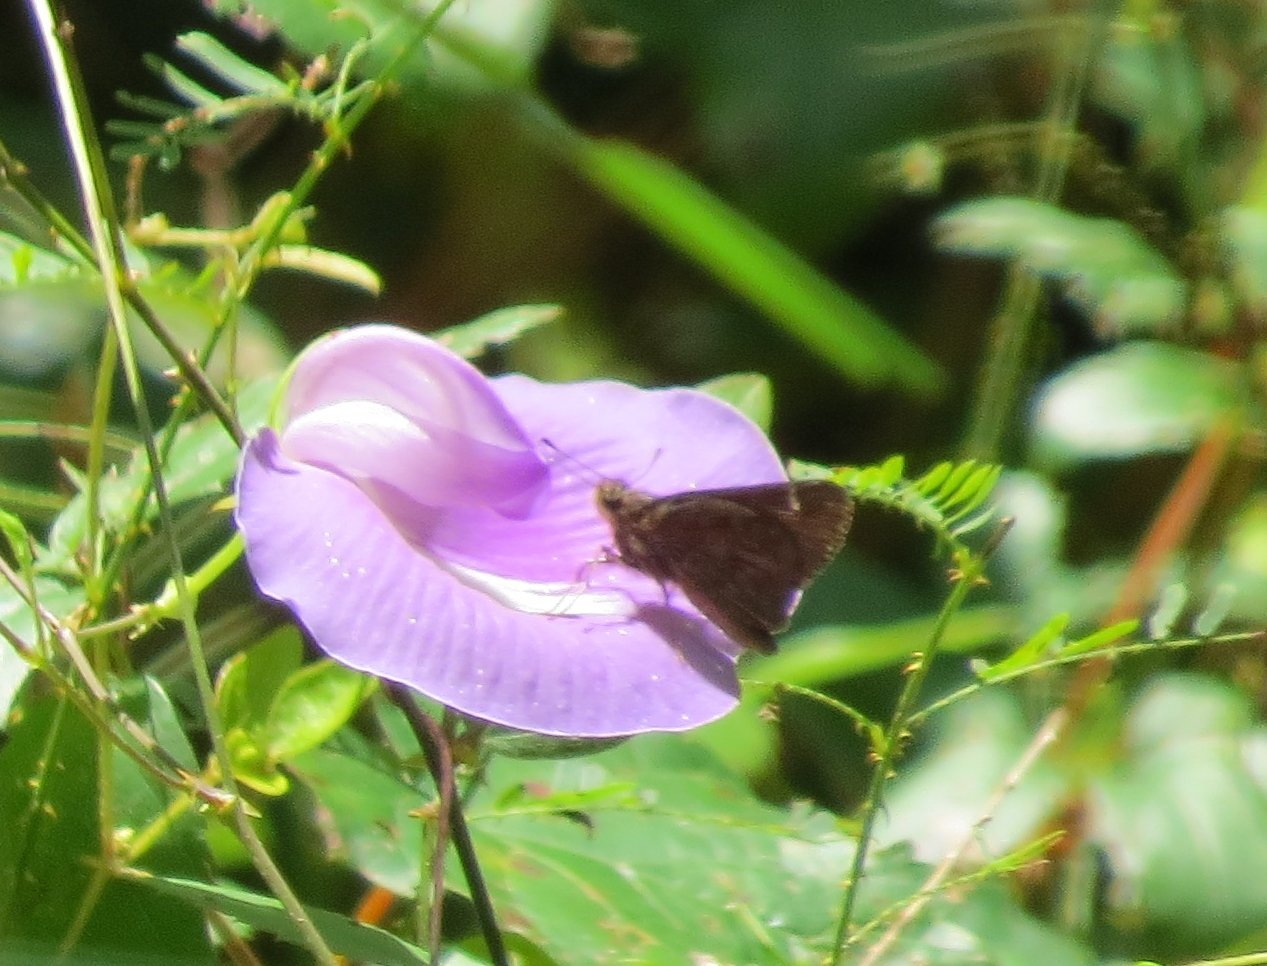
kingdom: Animalia
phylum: Arthropoda
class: Insecta
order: Lepidoptera
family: Hesperiidae
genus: Lerema
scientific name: Lerema accius
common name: Clouded Skipper
